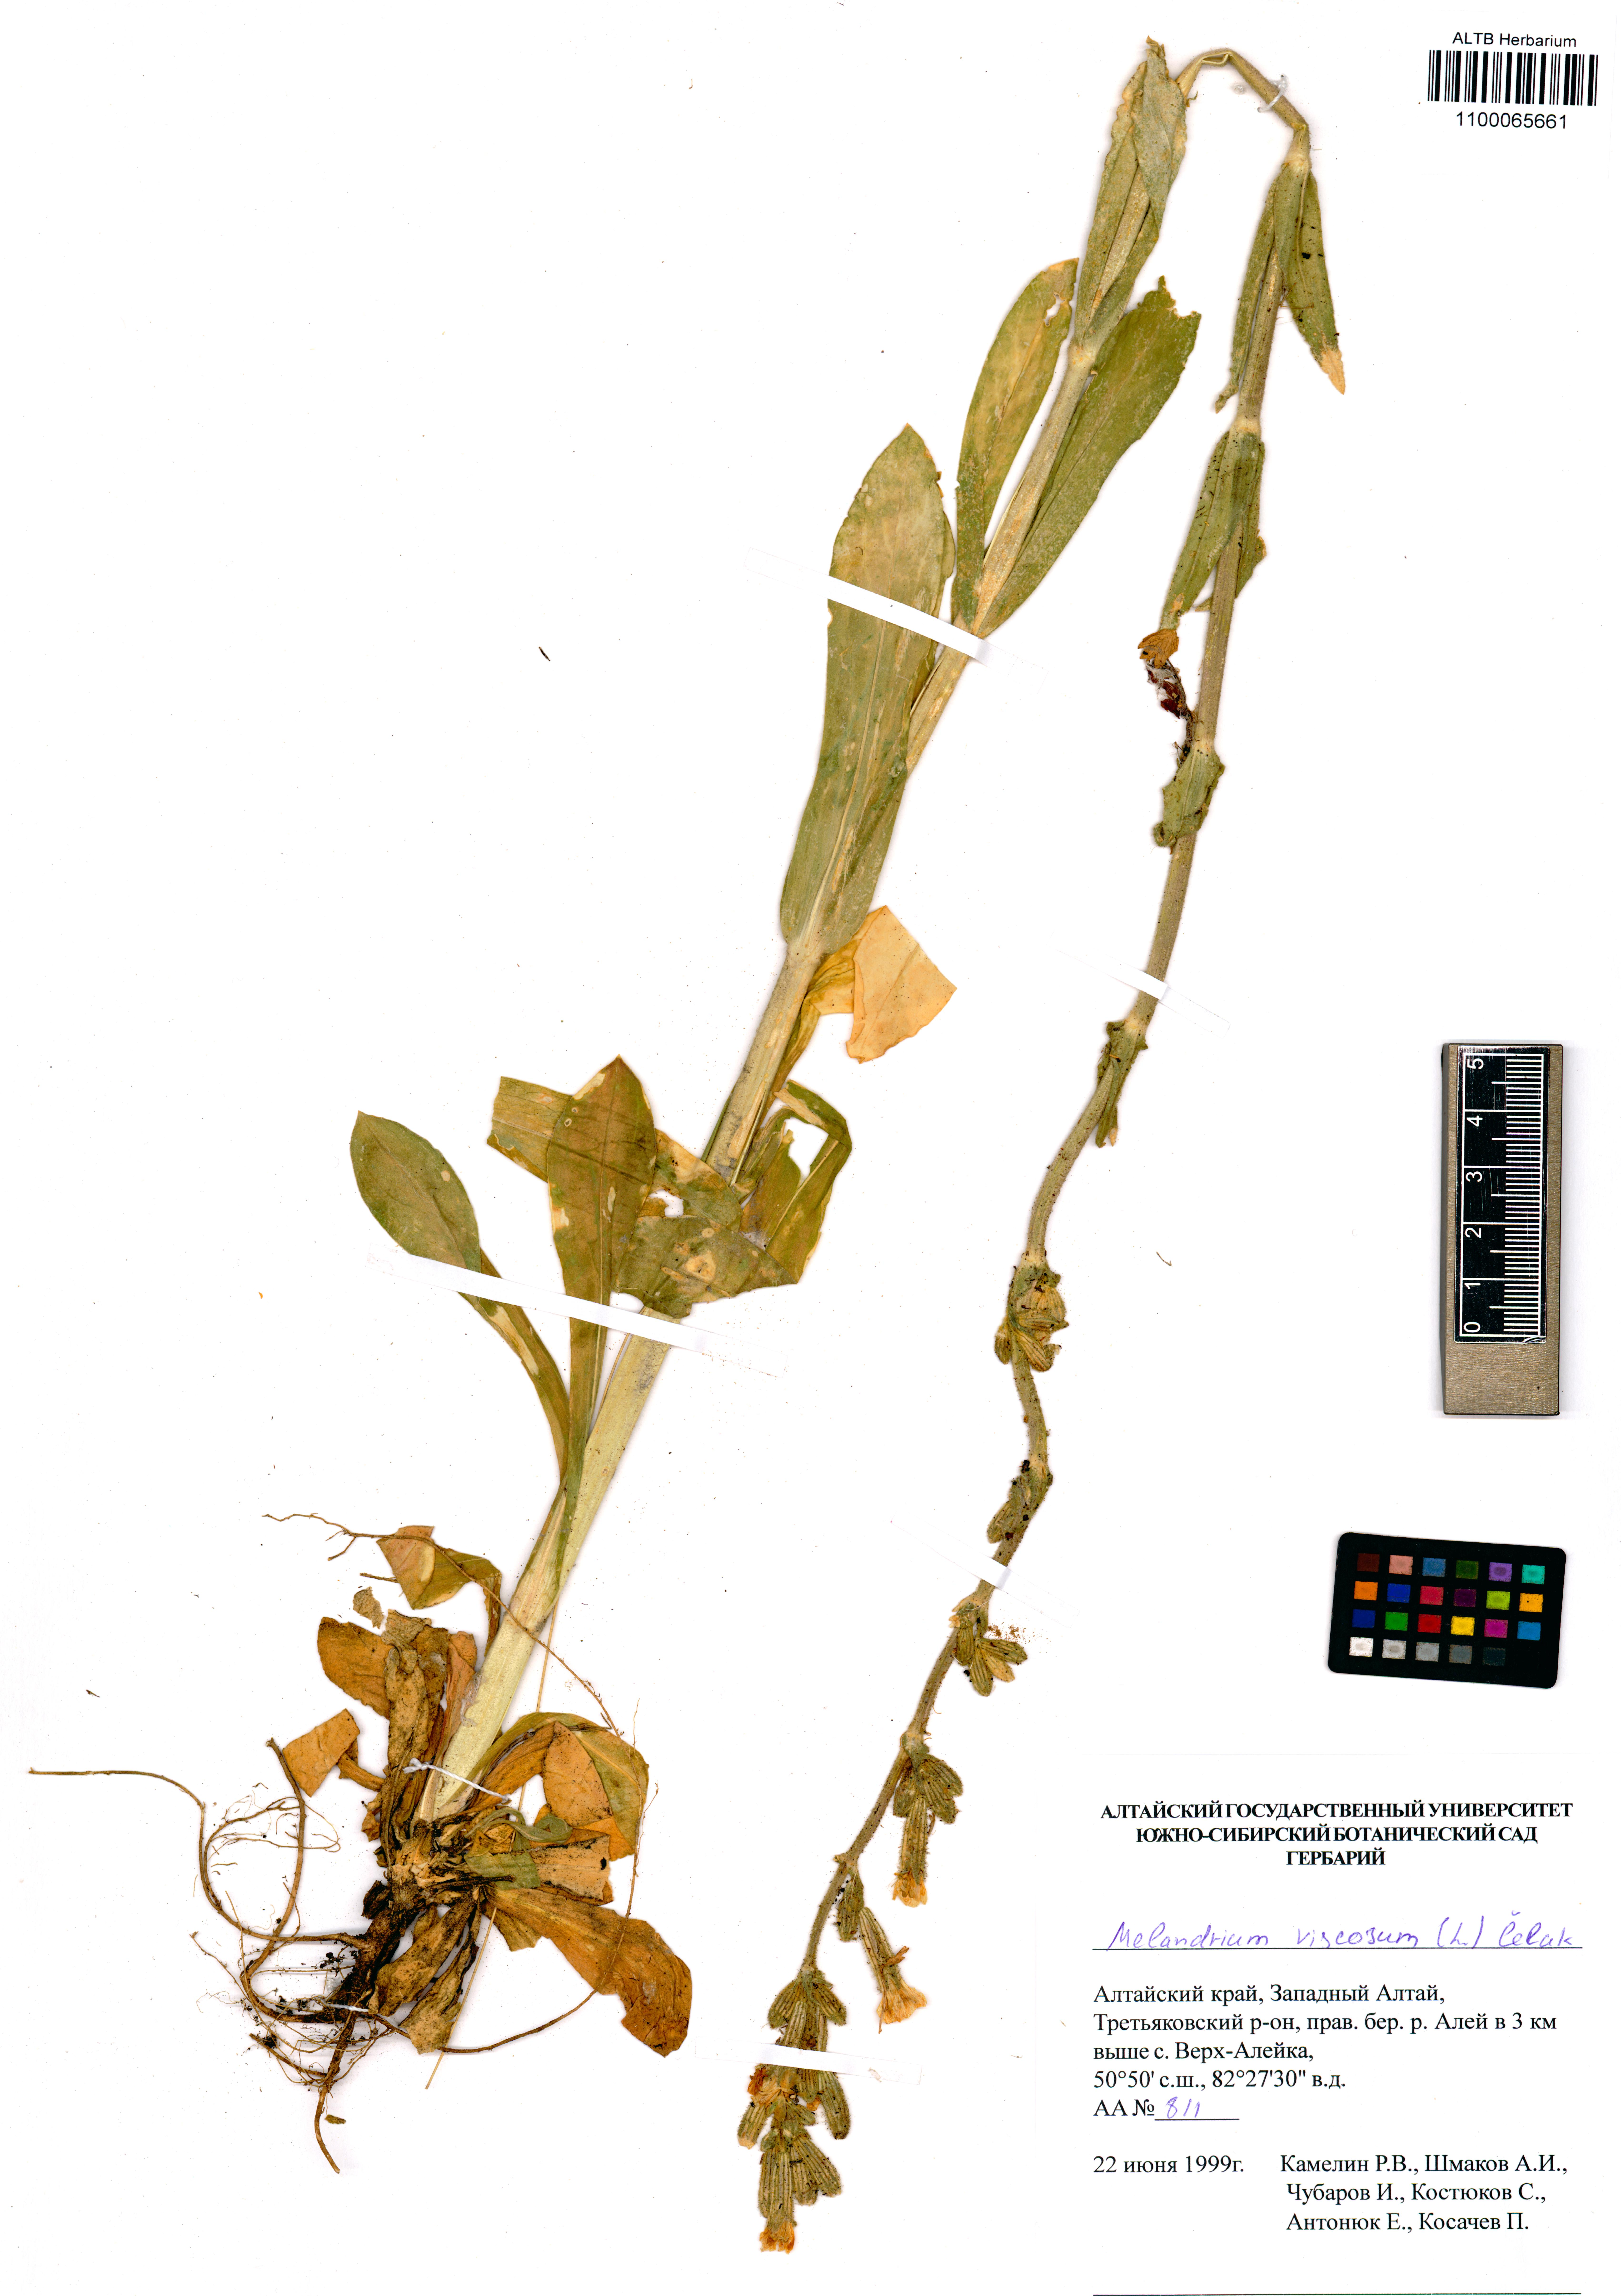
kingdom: Plantae
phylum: Tracheophyta
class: Magnoliopsida
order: Caryophyllales
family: Caryophyllaceae
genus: Silene
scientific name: Silene viscosa
